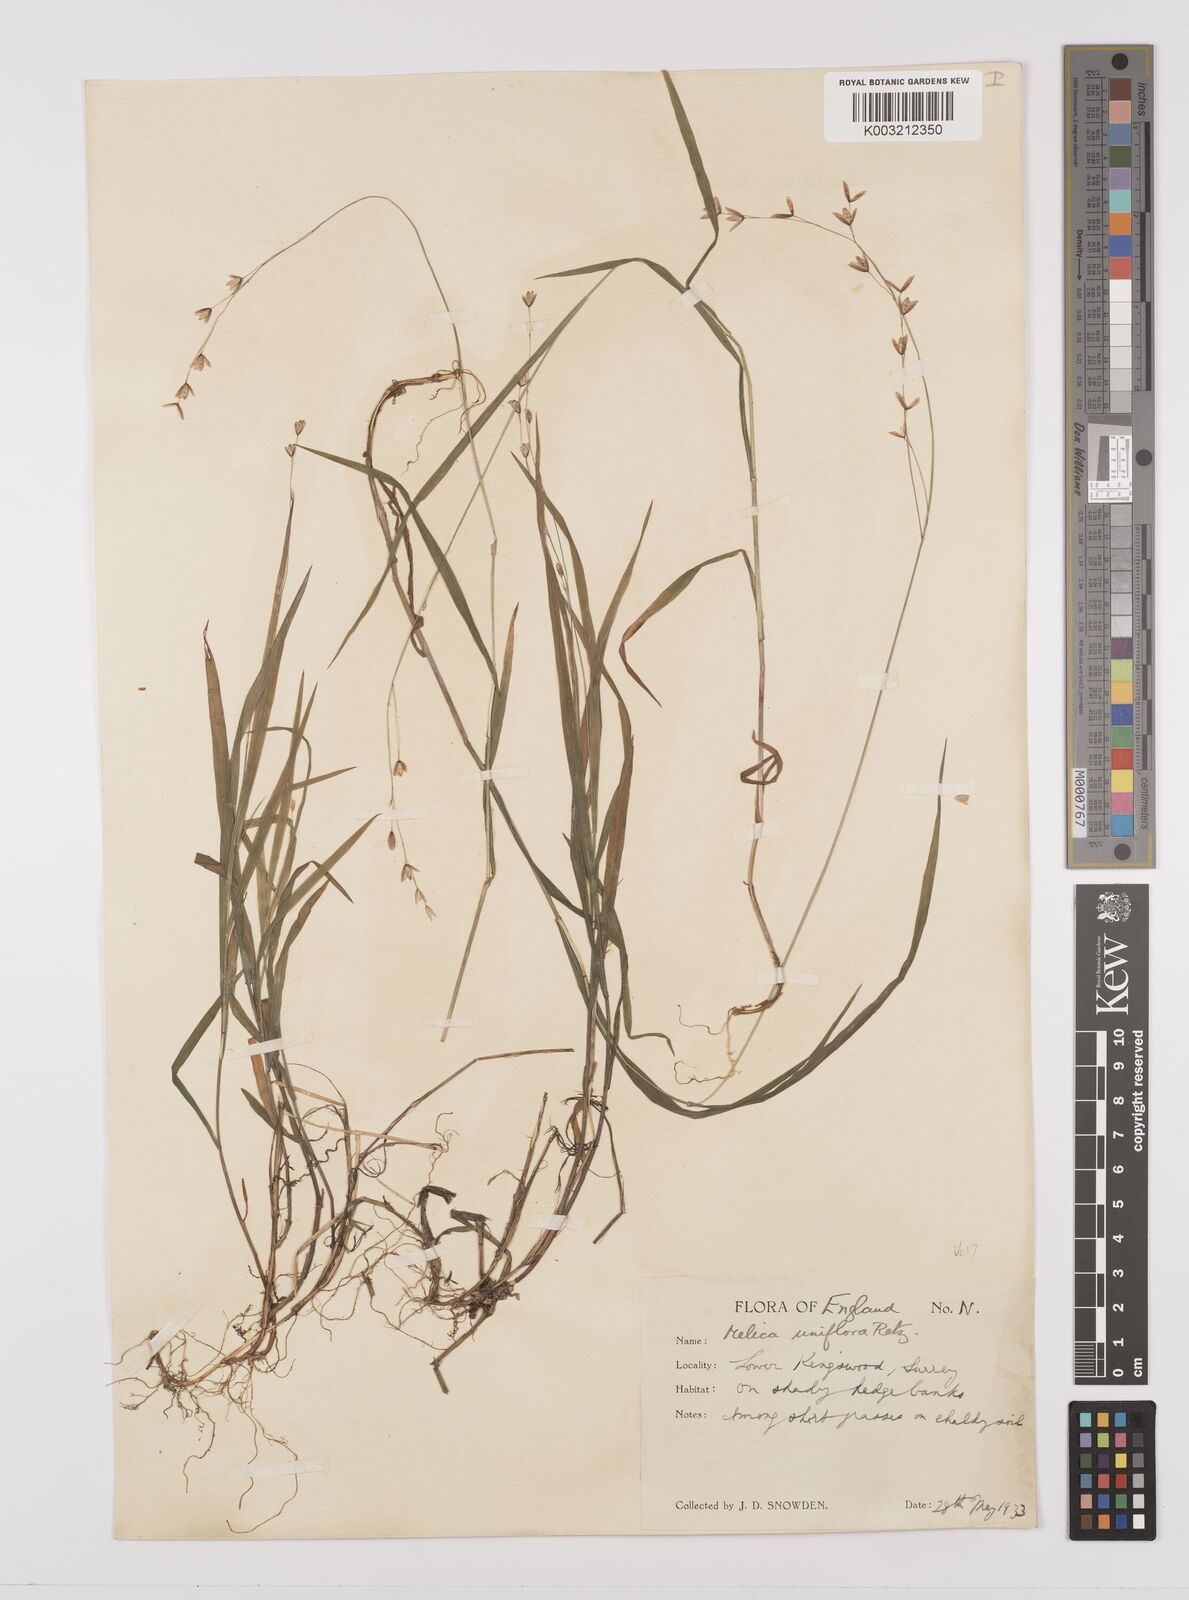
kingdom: Plantae
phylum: Tracheophyta
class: Liliopsida
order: Poales
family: Poaceae
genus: Melica
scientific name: Melica uniflora
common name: Wood melick
